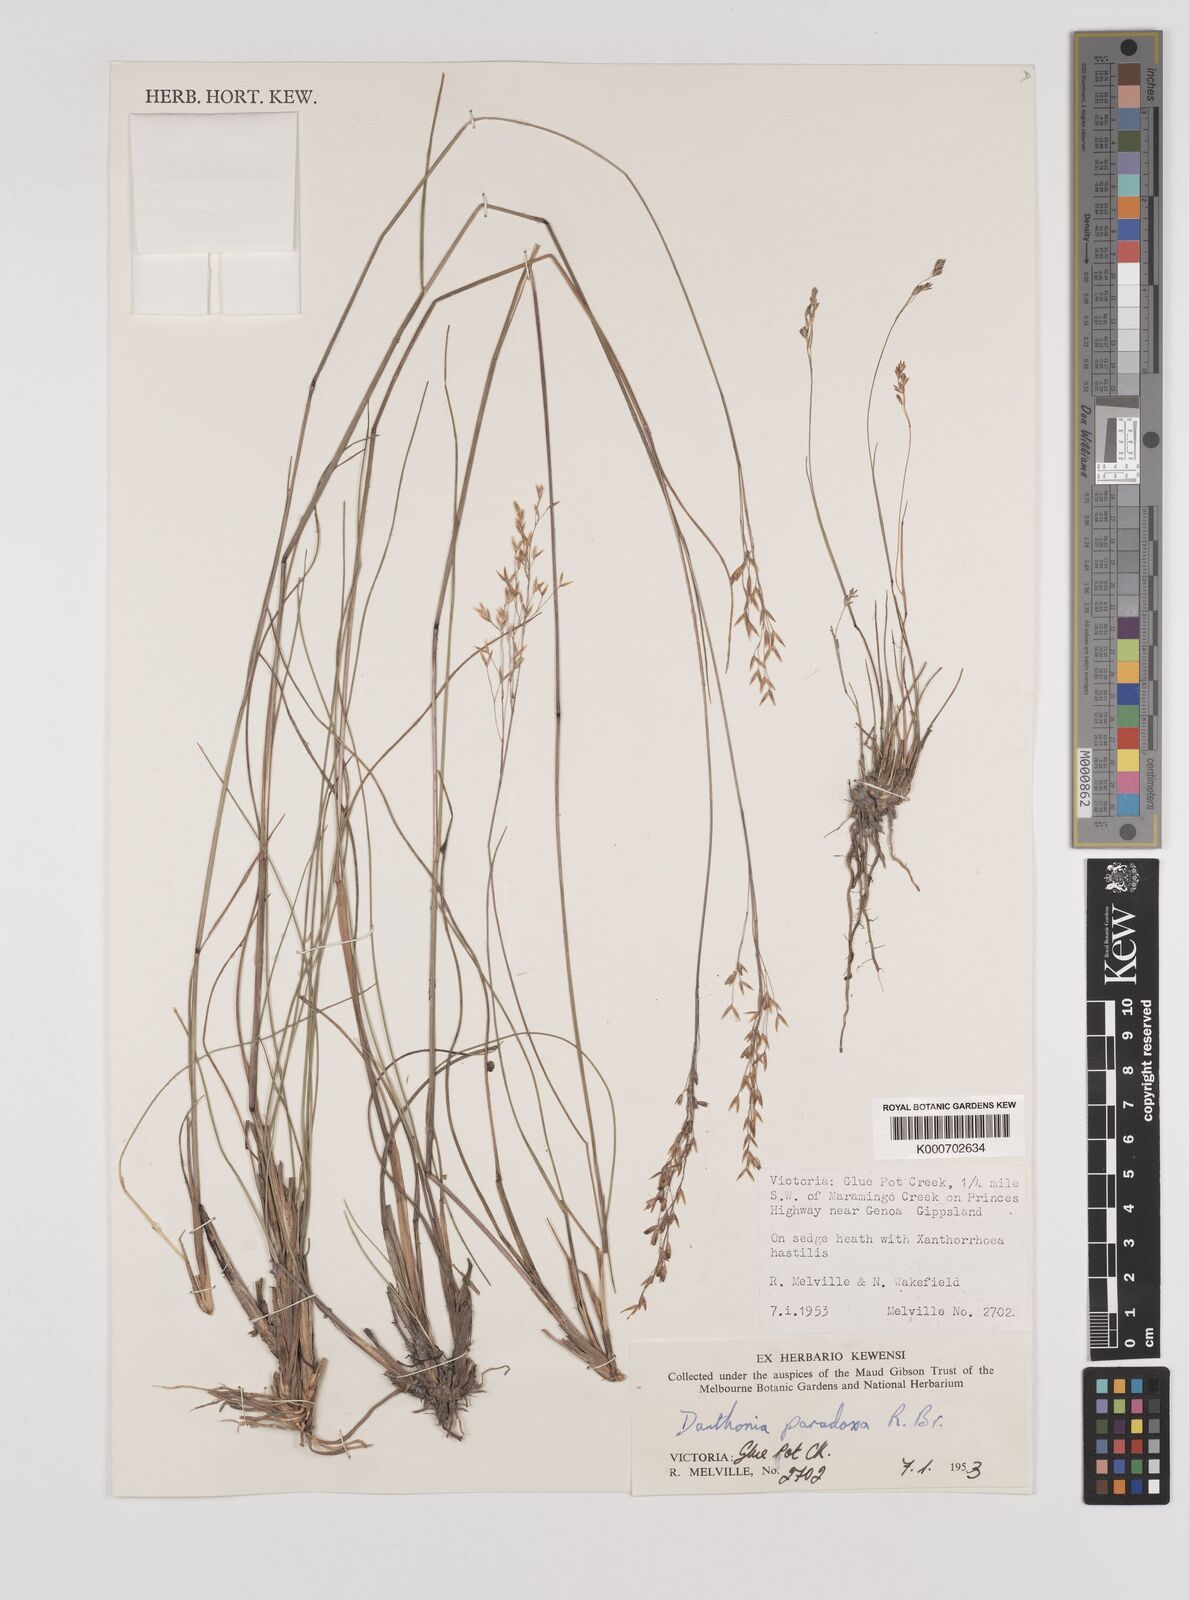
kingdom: Plantae
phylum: Tracheophyta
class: Liliopsida
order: Poales
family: Poaceae
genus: Plinthanthesis
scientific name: Plinthanthesis paradoxa
